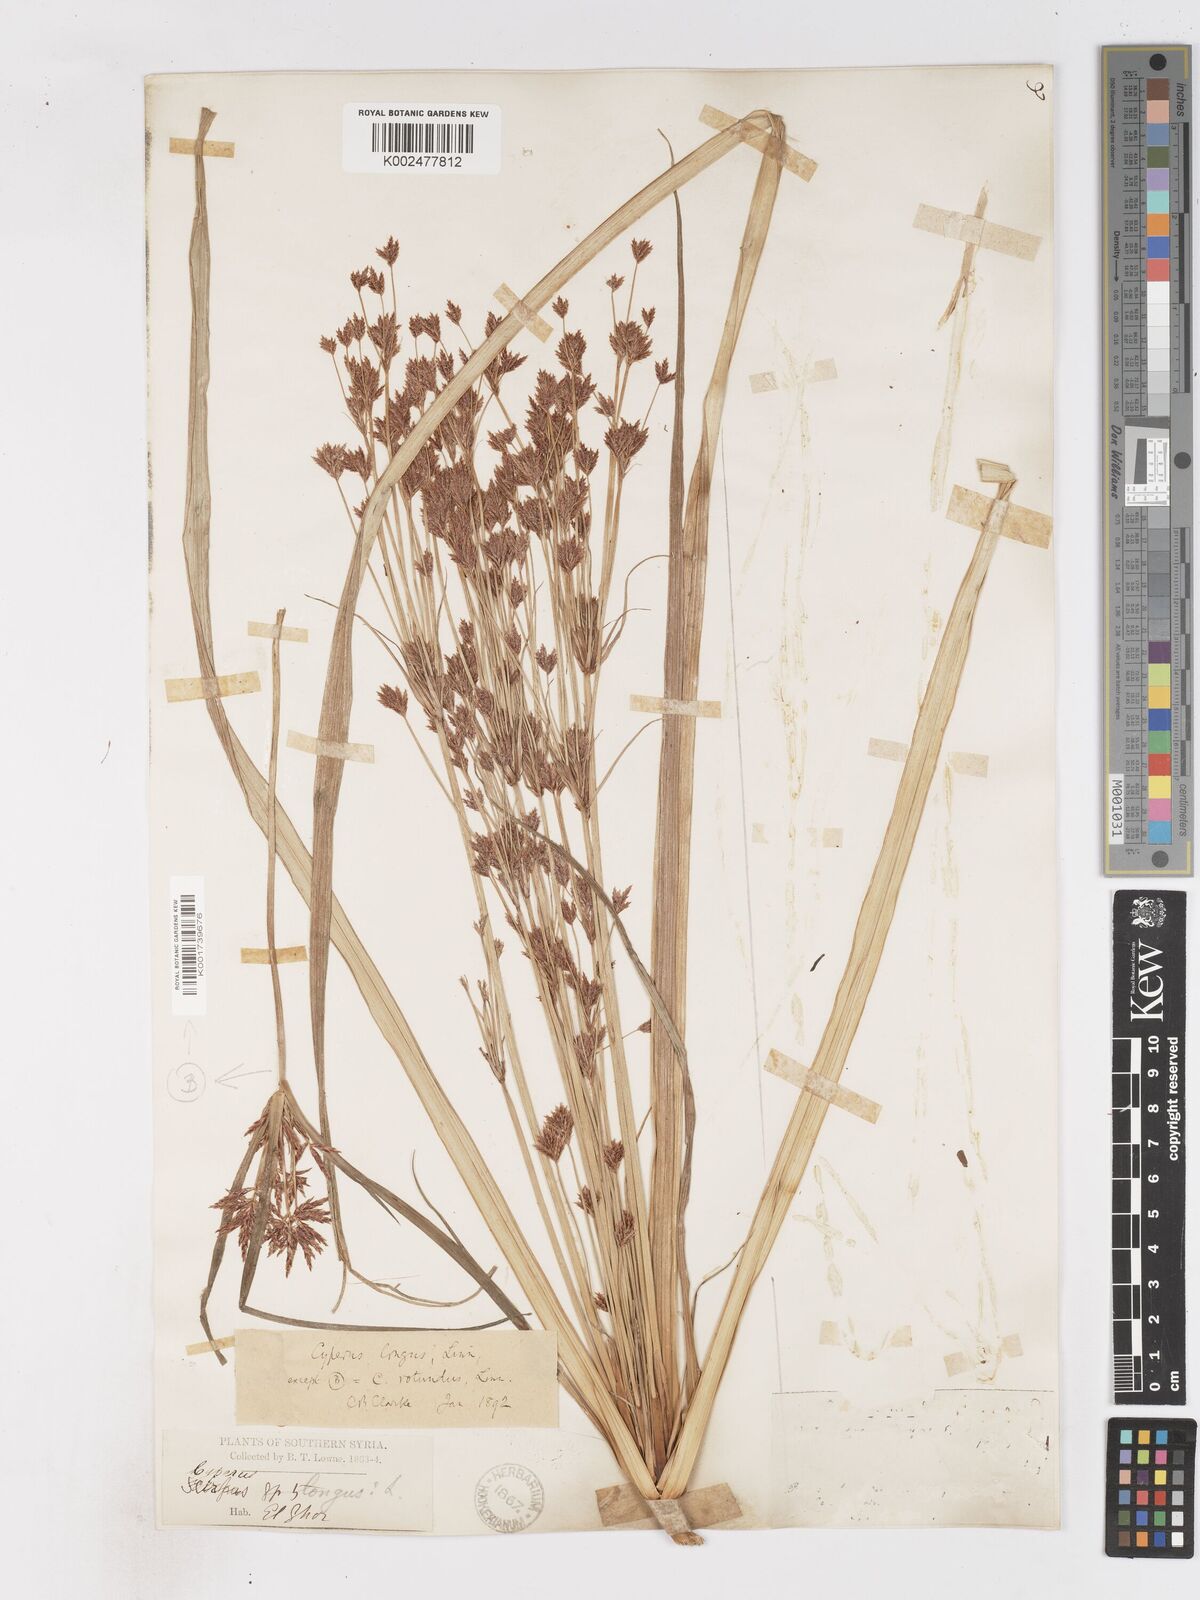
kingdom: Plantae
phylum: Tracheophyta
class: Liliopsida
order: Poales
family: Cyperaceae
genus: Cyperus
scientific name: Cyperus longus
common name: Galingale
